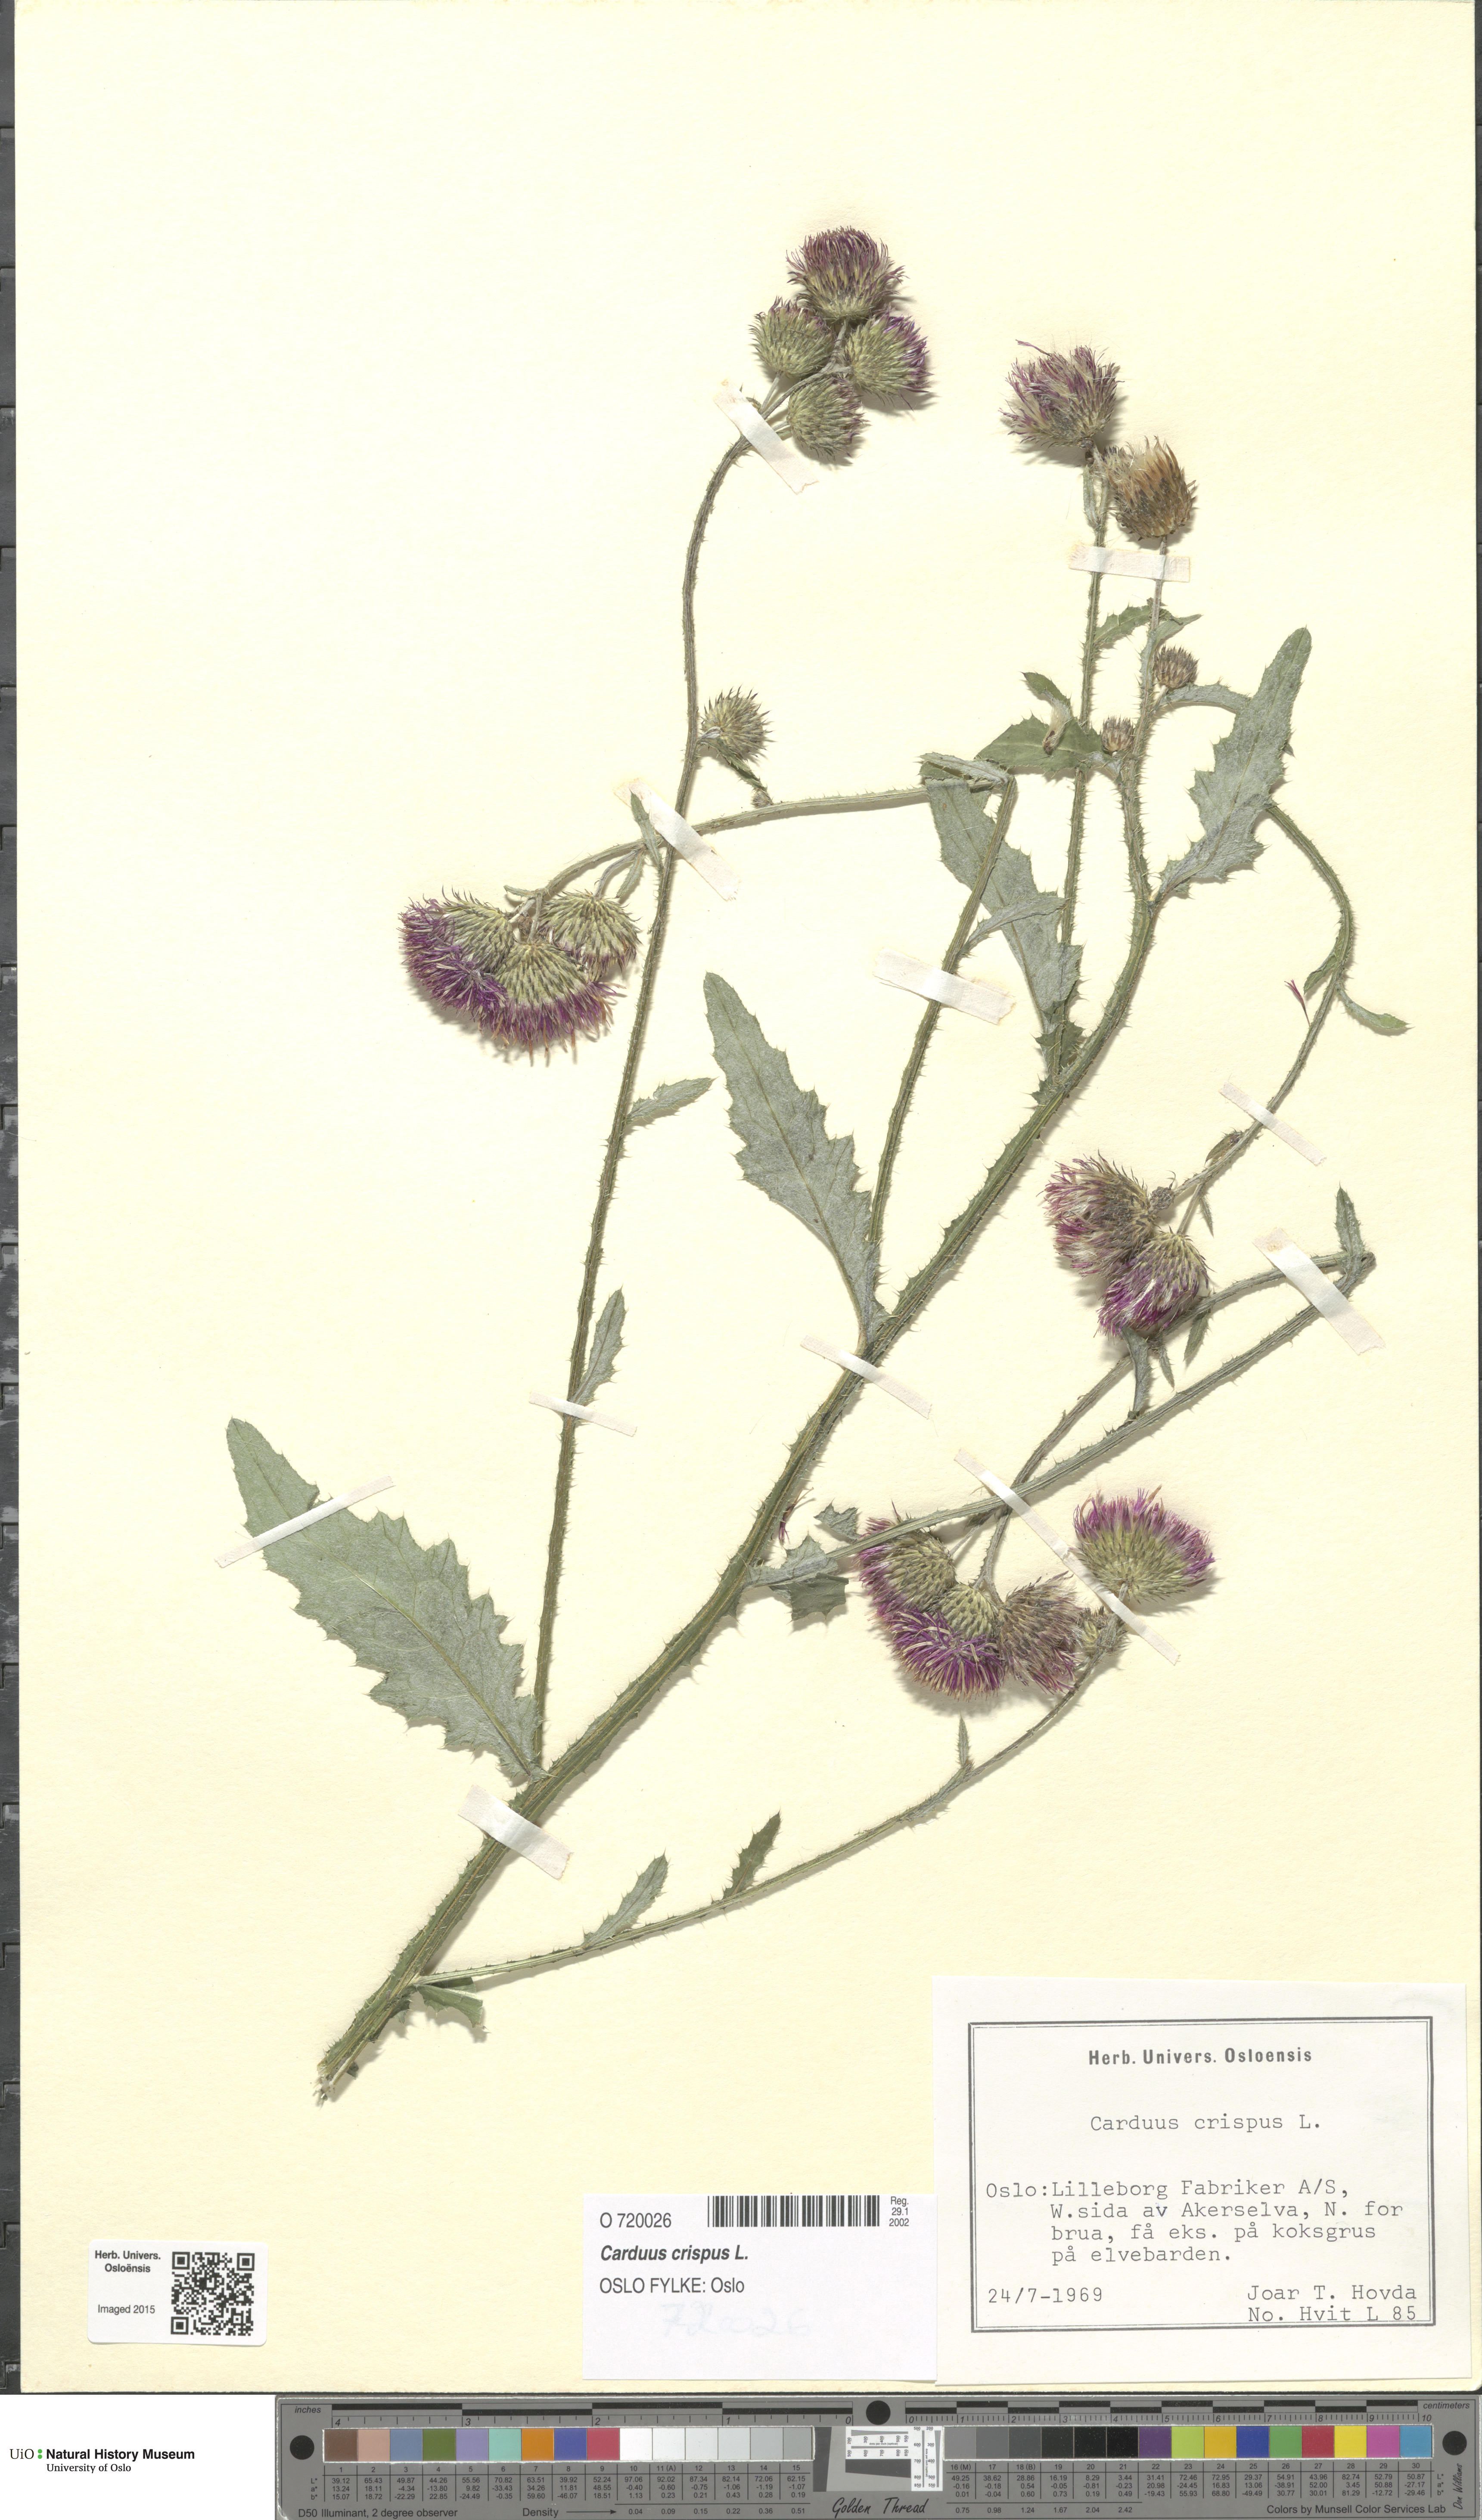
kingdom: Plantae
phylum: Tracheophyta
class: Magnoliopsida
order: Asterales
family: Asteraceae
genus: Carduus
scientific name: Carduus crispus
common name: Welted thistle
